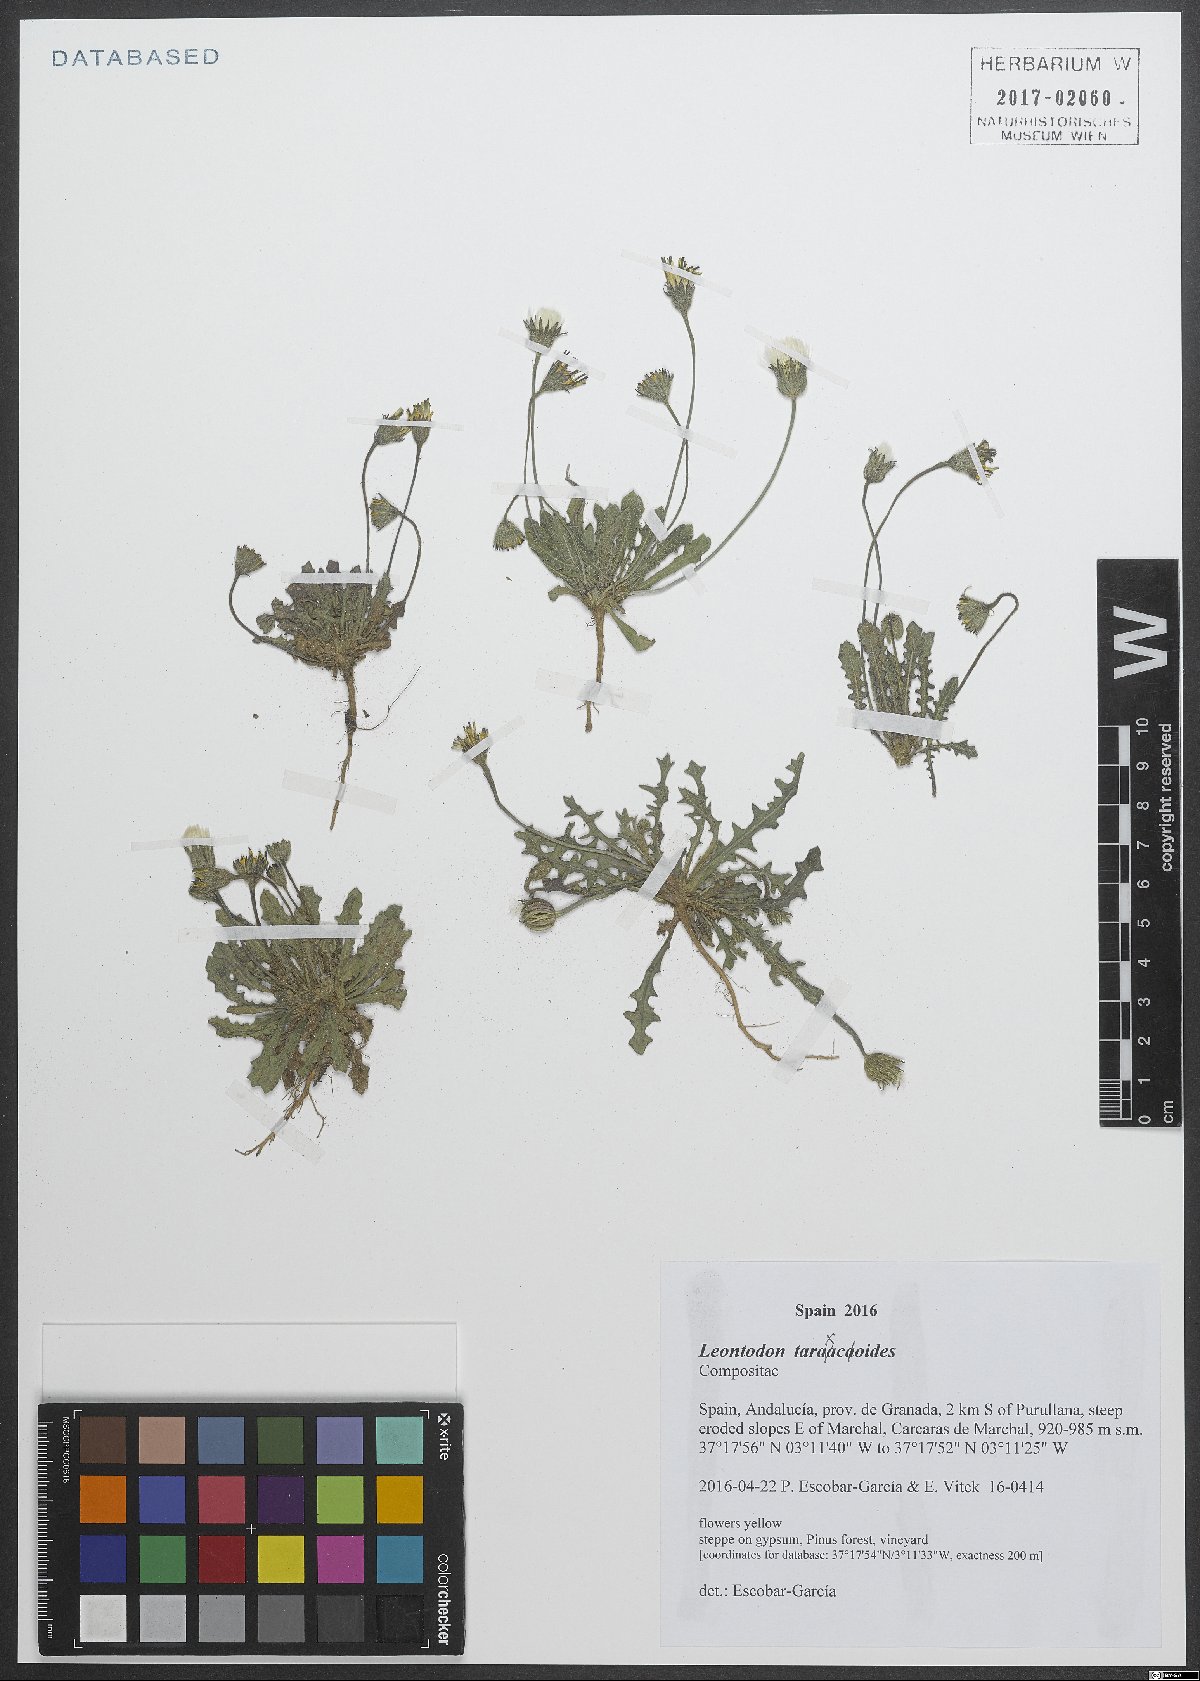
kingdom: Plantae
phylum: Tracheophyta
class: Magnoliopsida
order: Asterales
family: Asteraceae
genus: Thrincia
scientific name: Thrincia saxatilis
